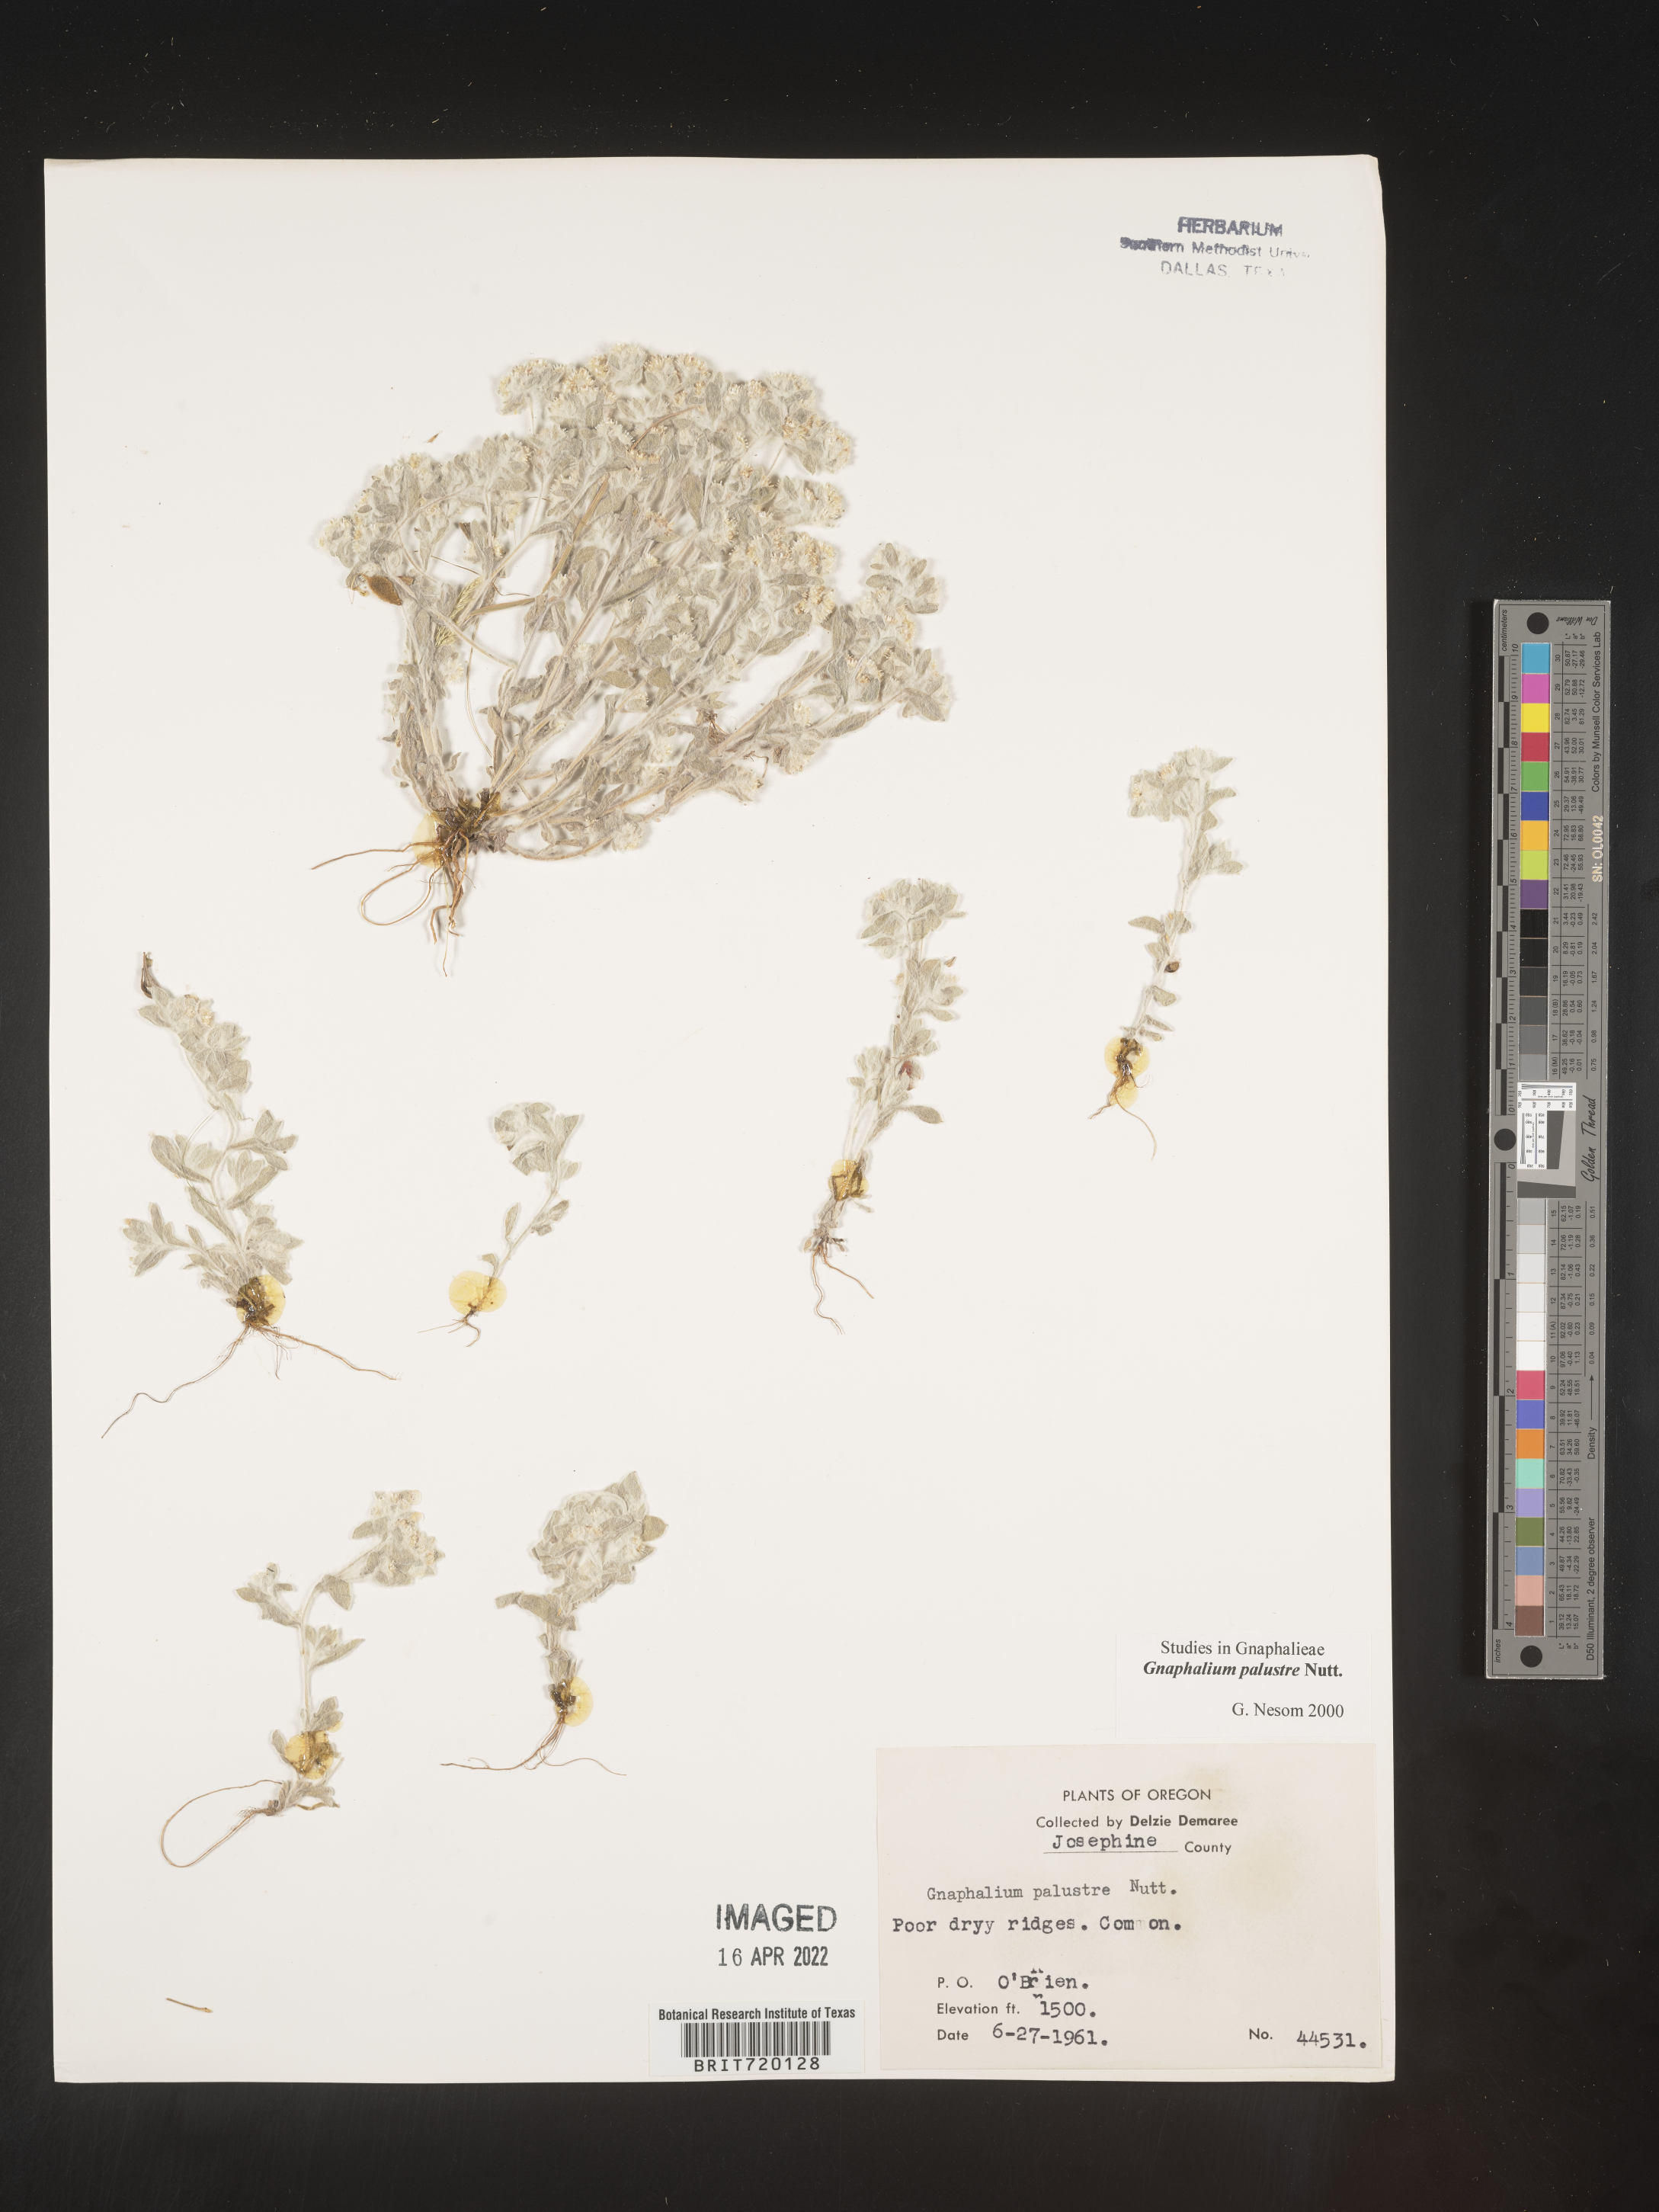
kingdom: Plantae
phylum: Tracheophyta
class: Magnoliopsida
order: Asterales
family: Asteraceae
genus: Gnaphalium
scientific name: Gnaphalium palustre
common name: Western marsh cudweed
